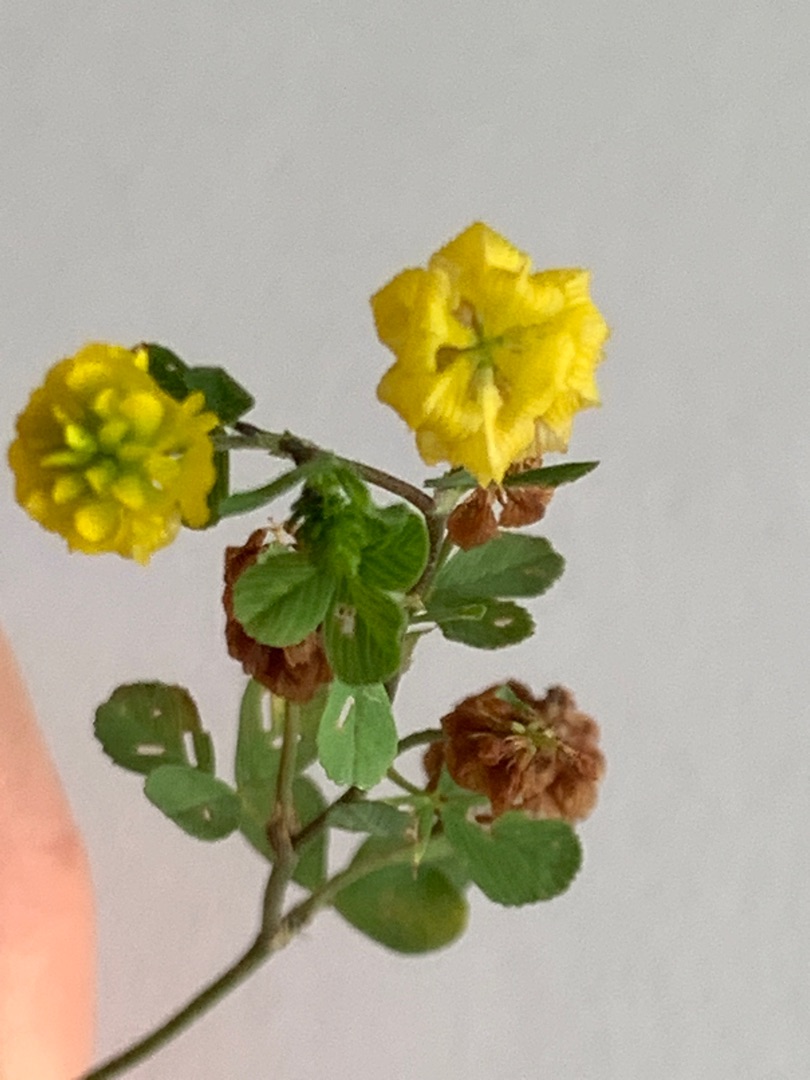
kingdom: Plantae
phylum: Tracheophyta
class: Magnoliopsida
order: Fabales
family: Fabaceae
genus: Trifolium
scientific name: Trifolium campestre
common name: Gul kløver
